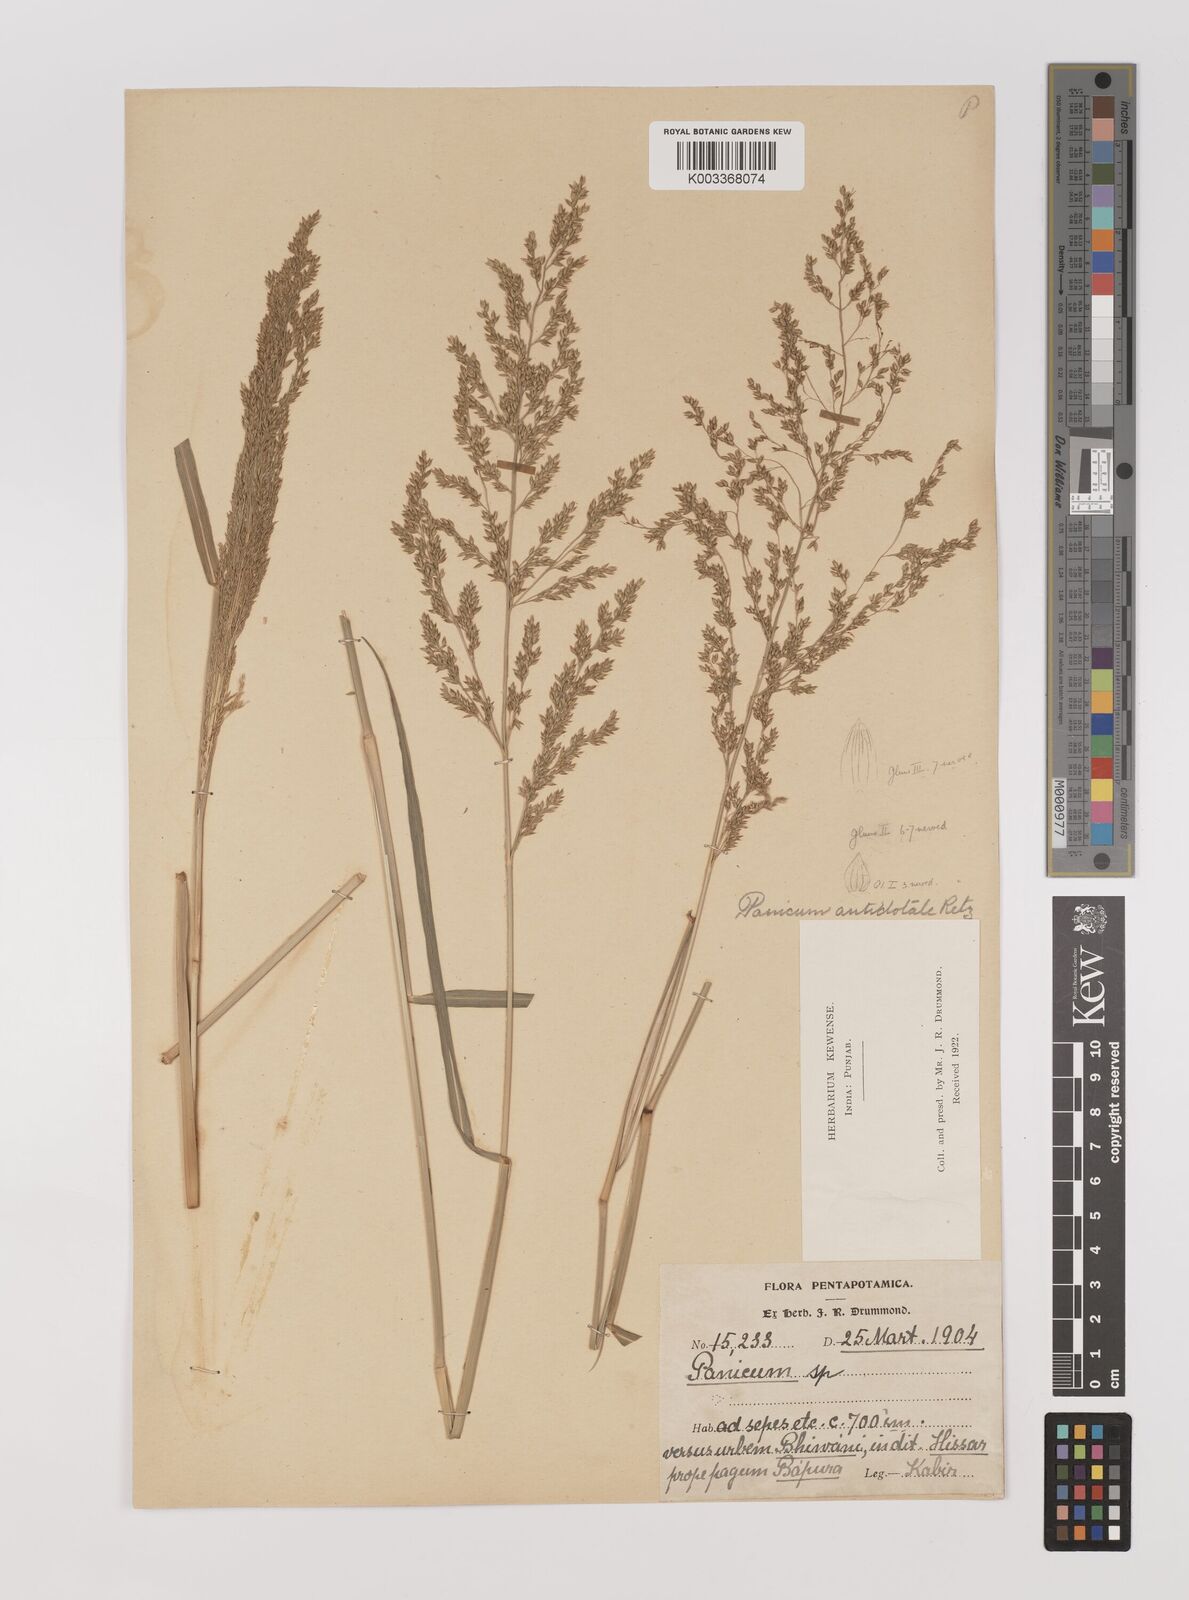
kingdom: Plantae
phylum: Tracheophyta
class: Liliopsida
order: Poales
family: Poaceae
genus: Panicum
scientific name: Panicum antidotale
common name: Blue panicum
